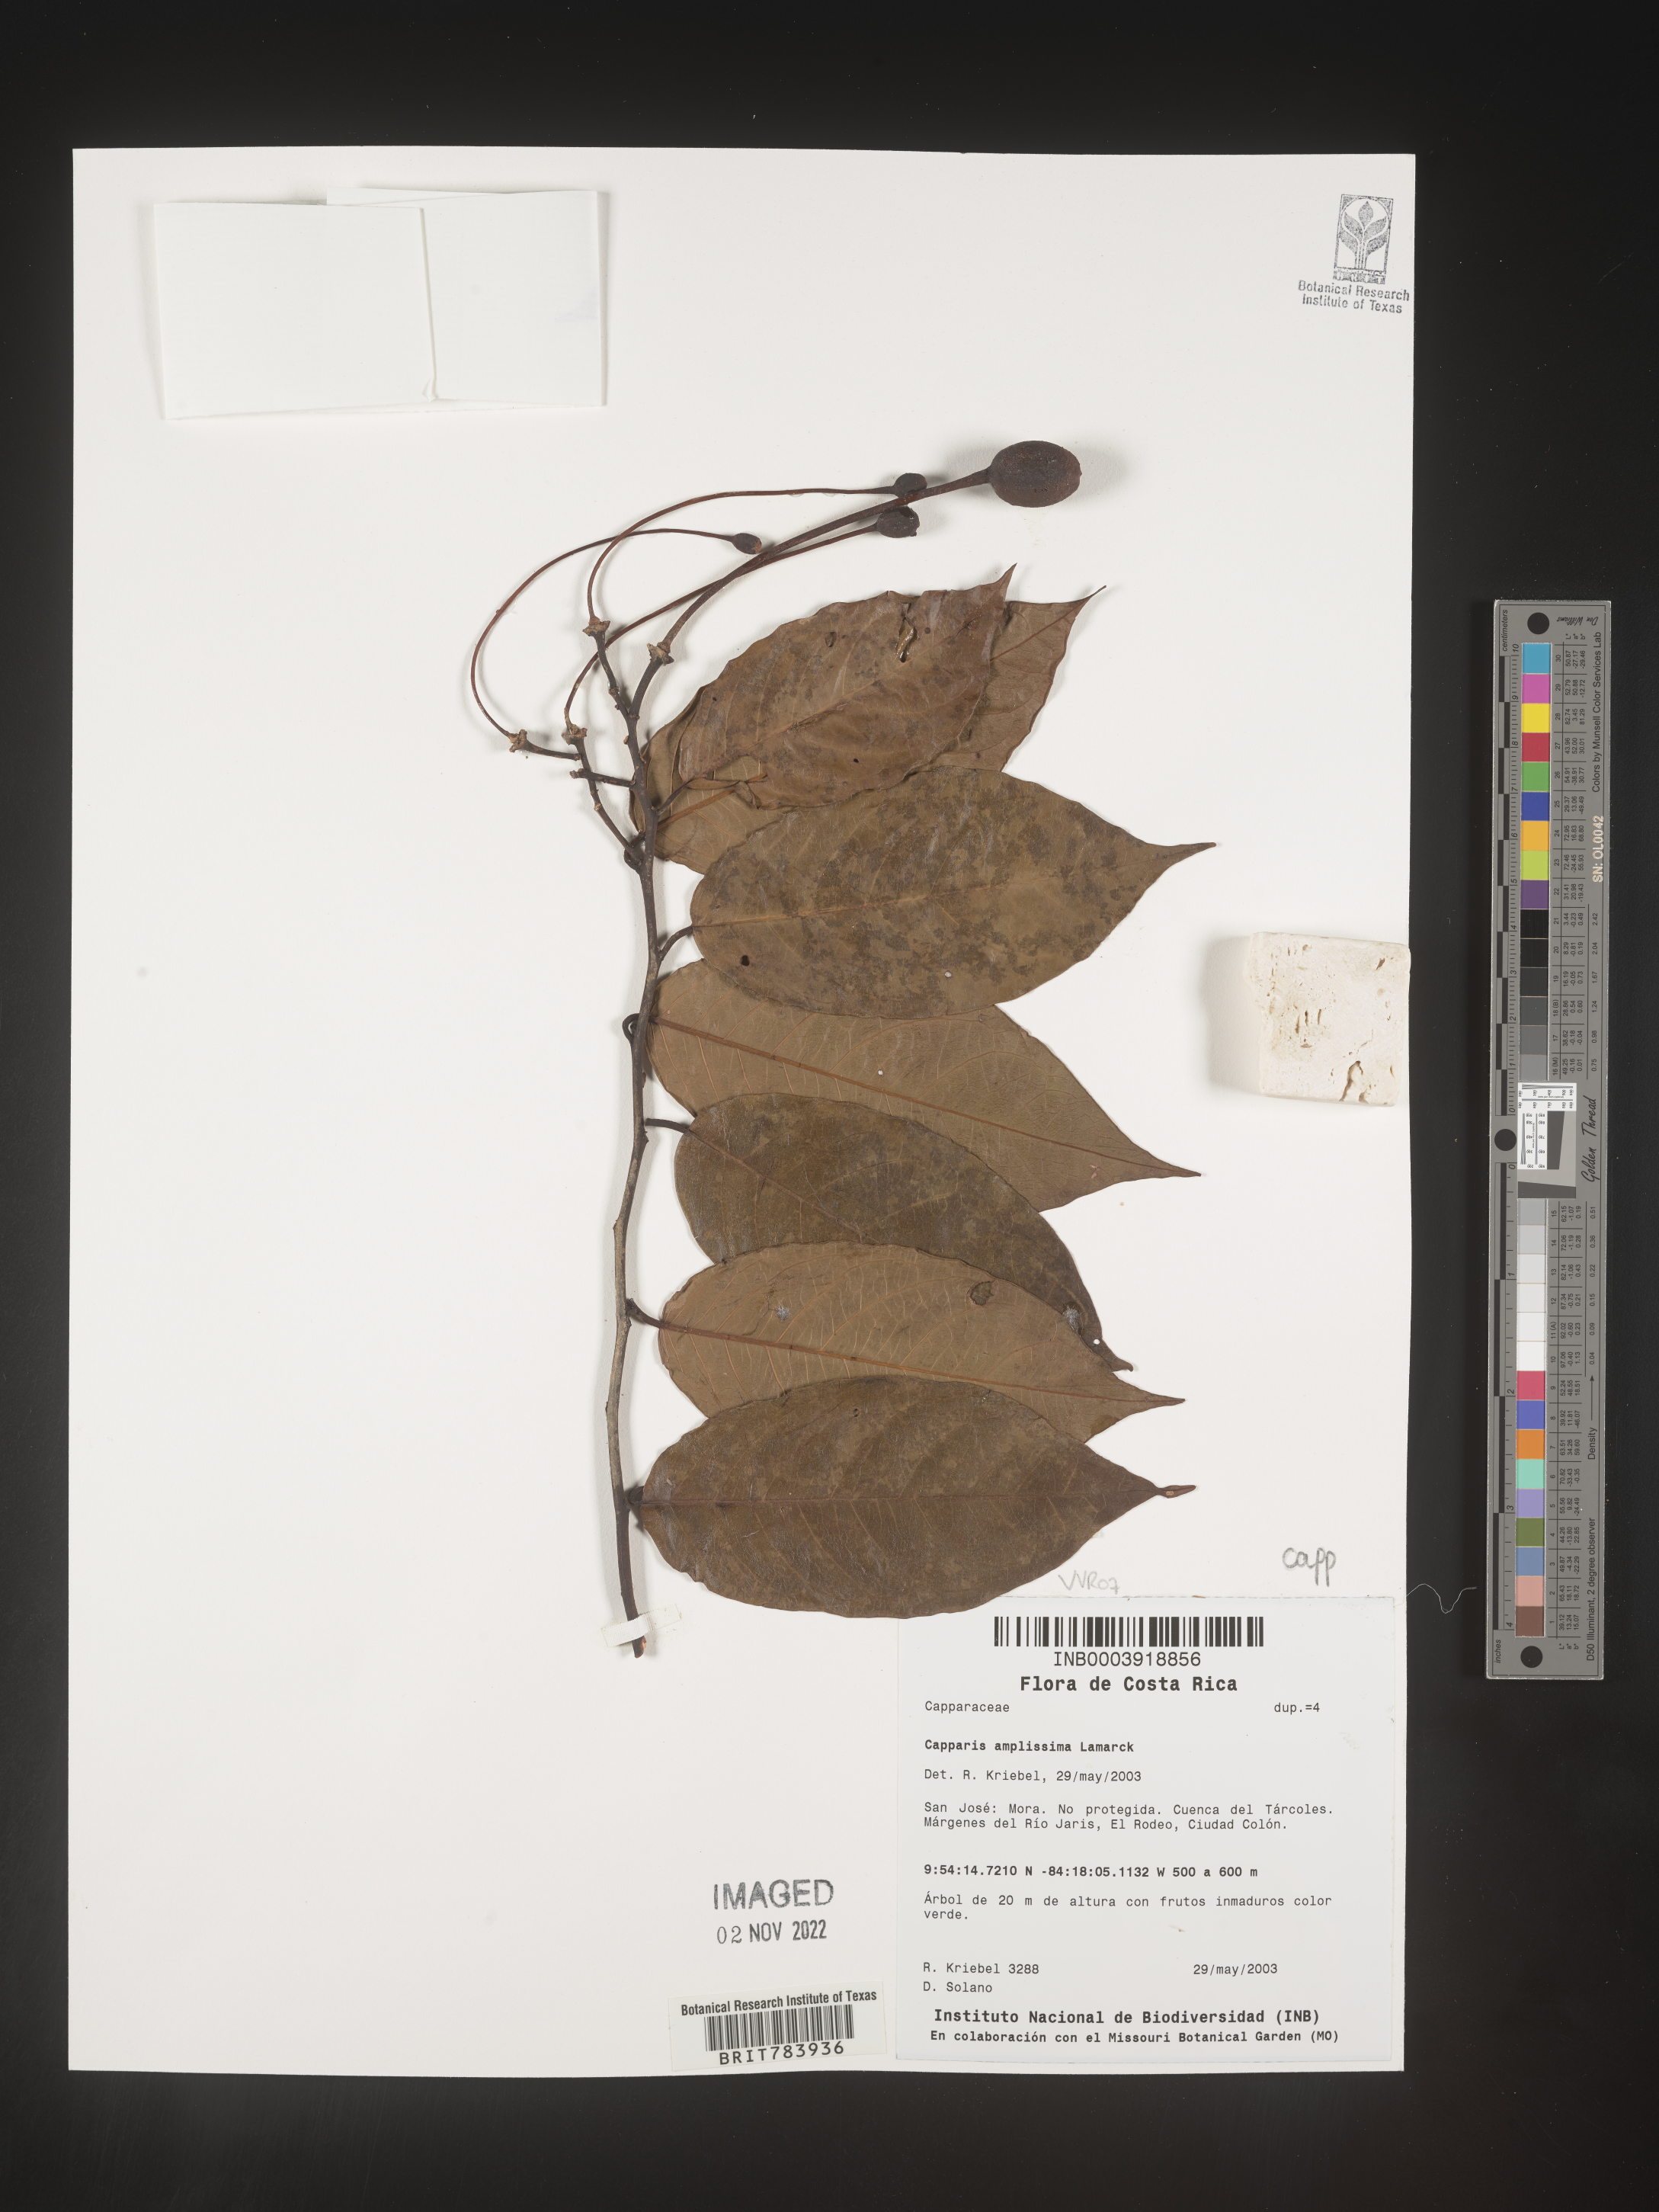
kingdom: Plantae
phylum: Tracheophyta
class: Magnoliopsida
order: Brassicales
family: Capparaceae
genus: Capparis
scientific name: Capparis
